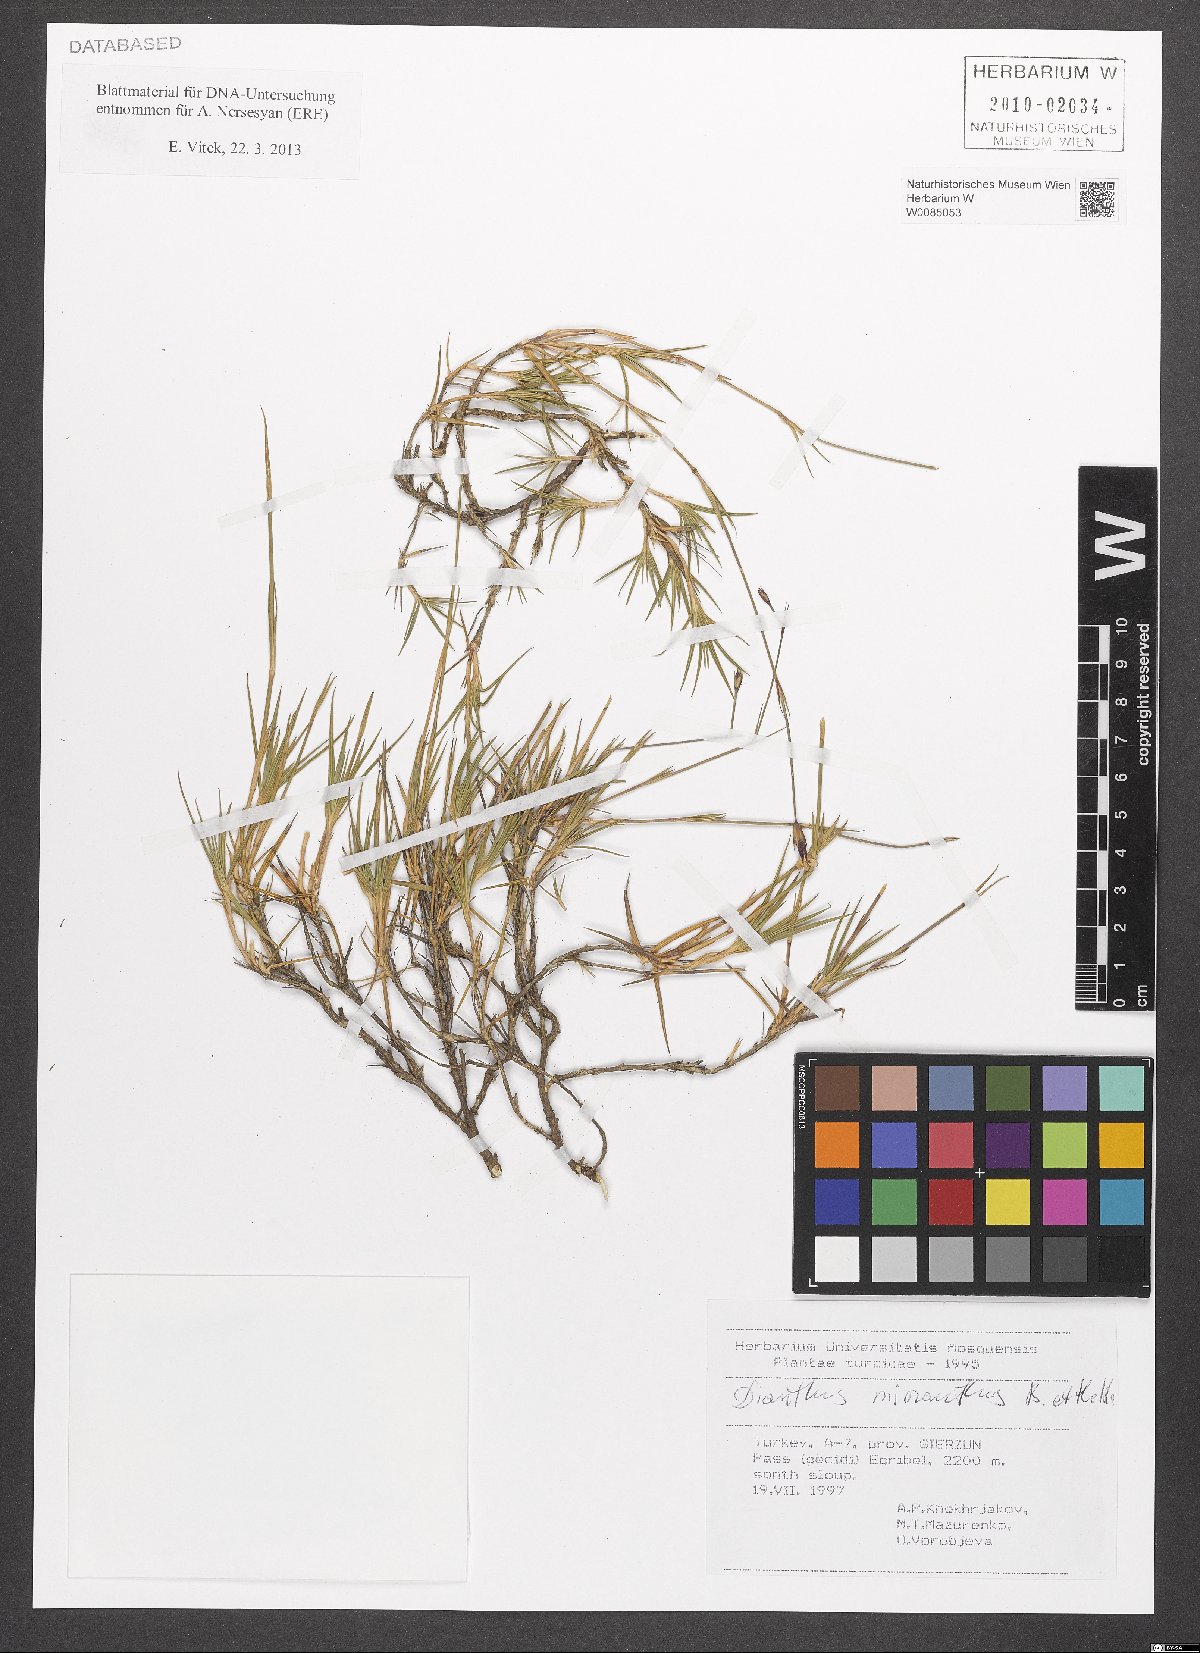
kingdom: Plantae
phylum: Tracheophyta
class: Magnoliopsida
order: Caryophyllales
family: Caryophyllaceae
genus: Dianthus
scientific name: Dianthus micranthus
